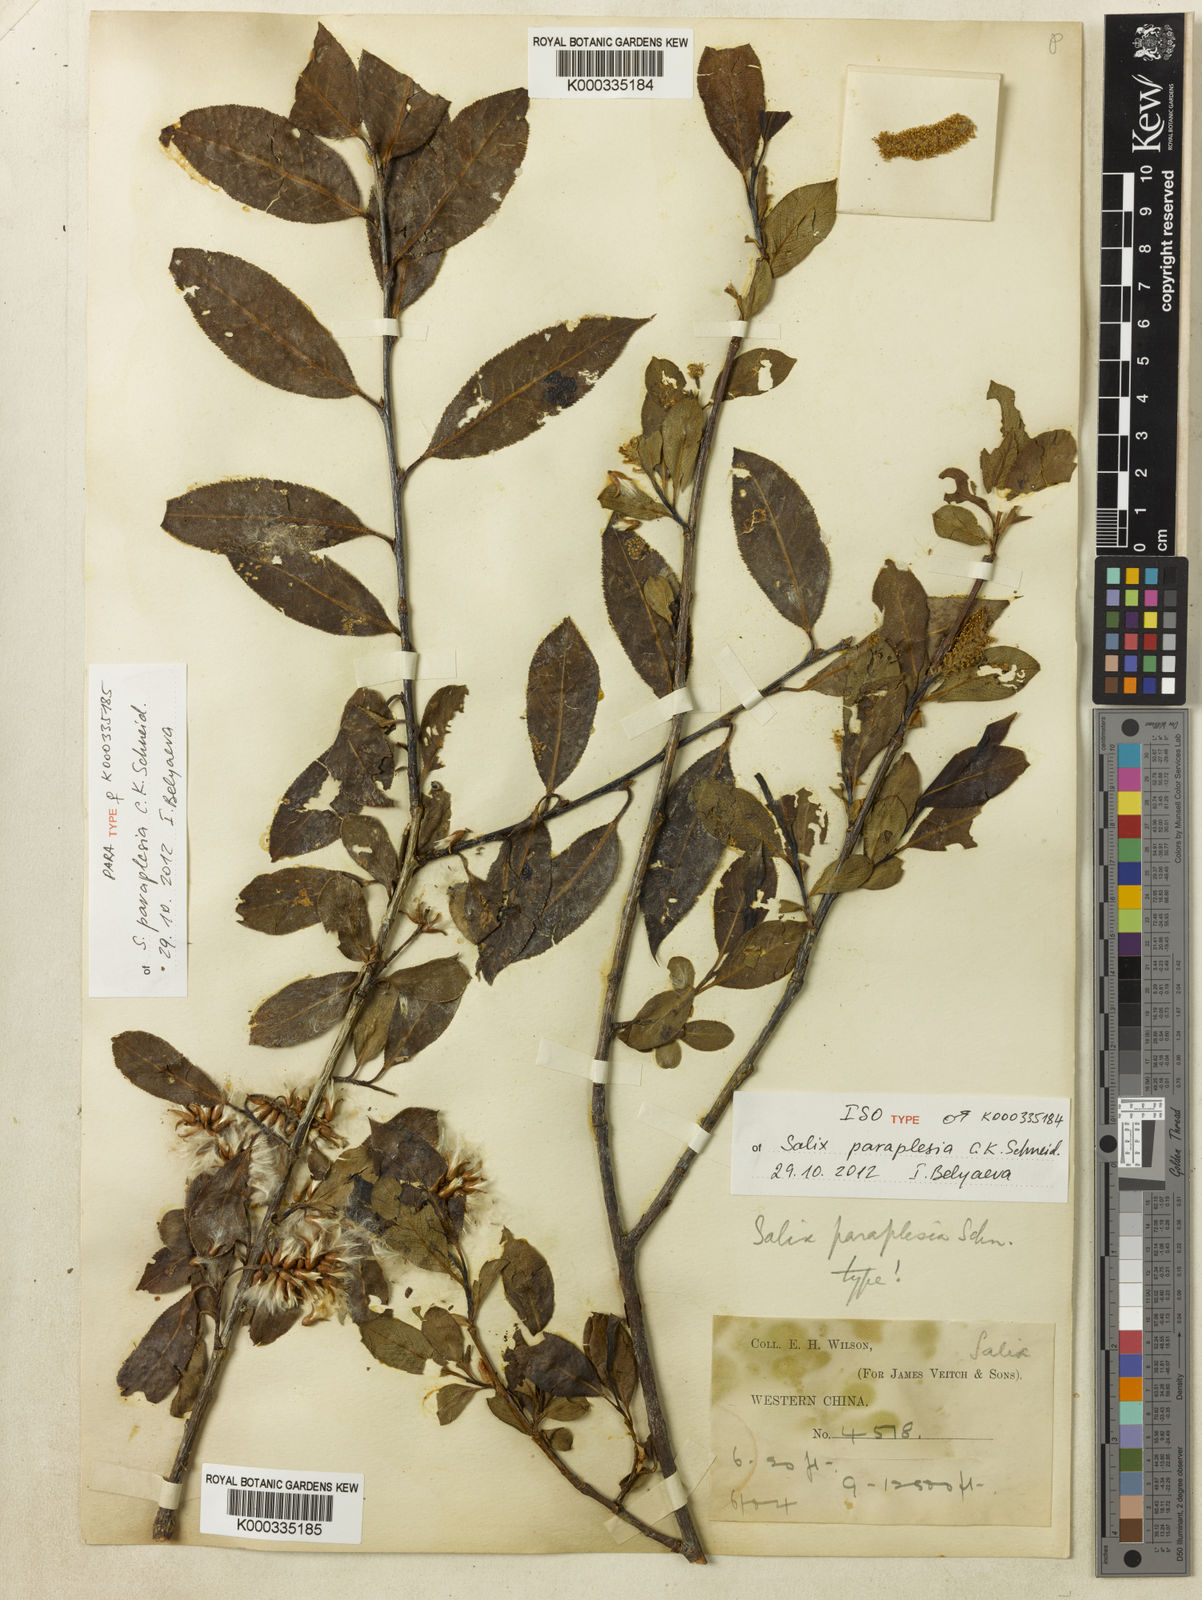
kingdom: Plantae
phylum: Tracheophyta
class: Magnoliopsida
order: Malpighiales
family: Salicaceae
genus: Salix
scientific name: Salix paraplesia
